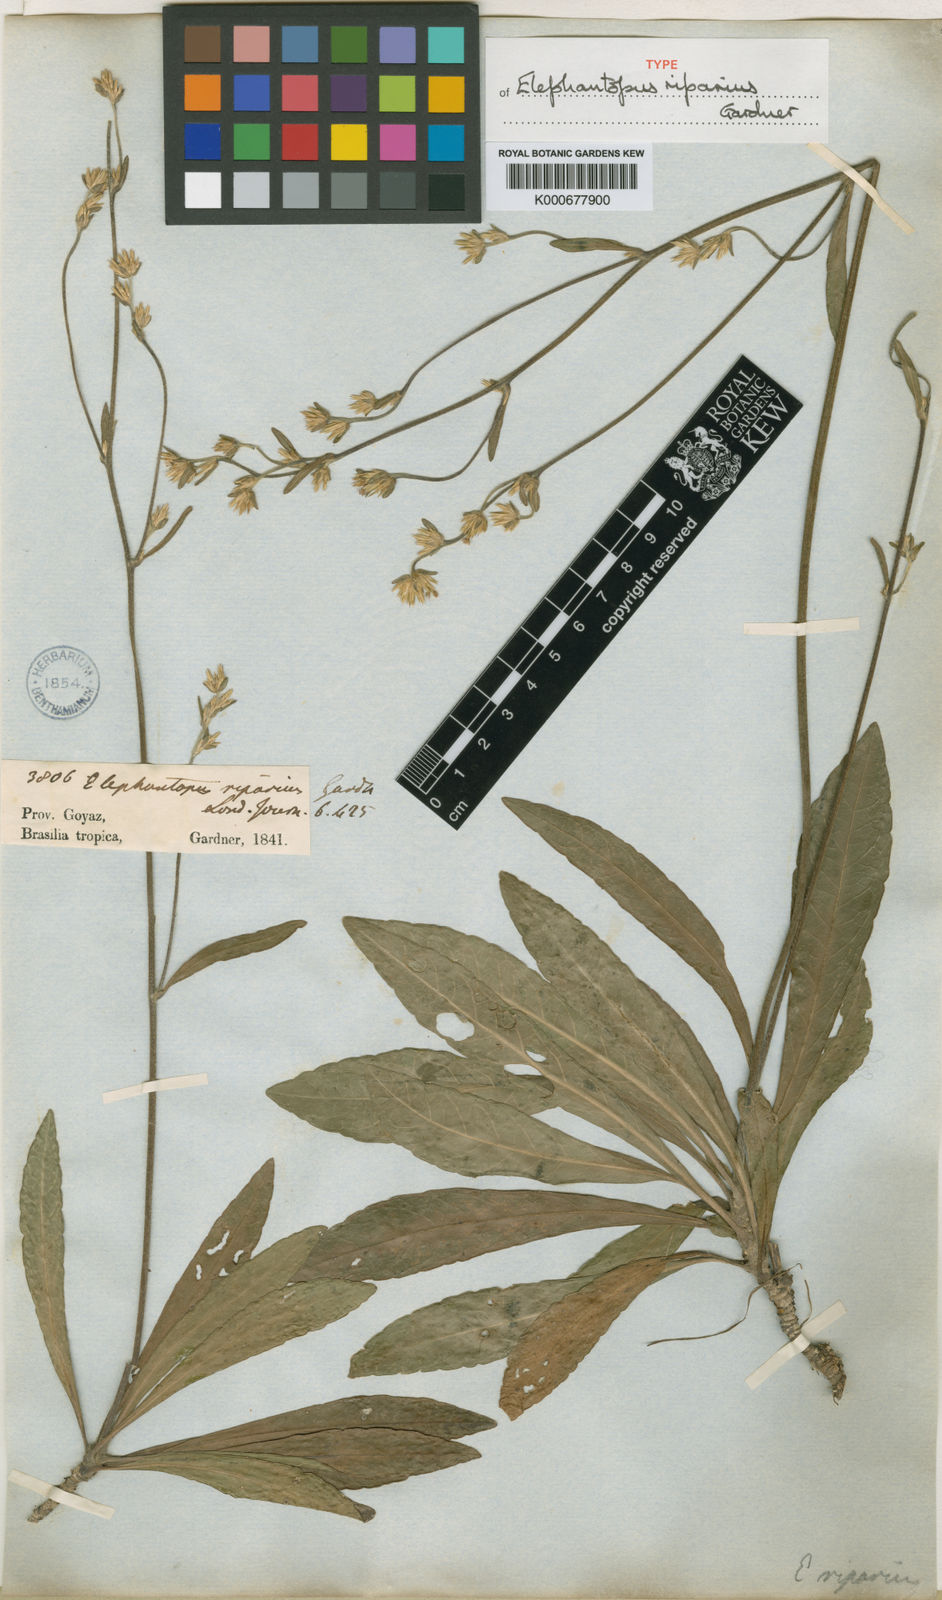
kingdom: Plantae
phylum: Tracheophyta
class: Magnoliopsida
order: Asterales
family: Asteraceae
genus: Elephantopus
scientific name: Elephantopus riparius
